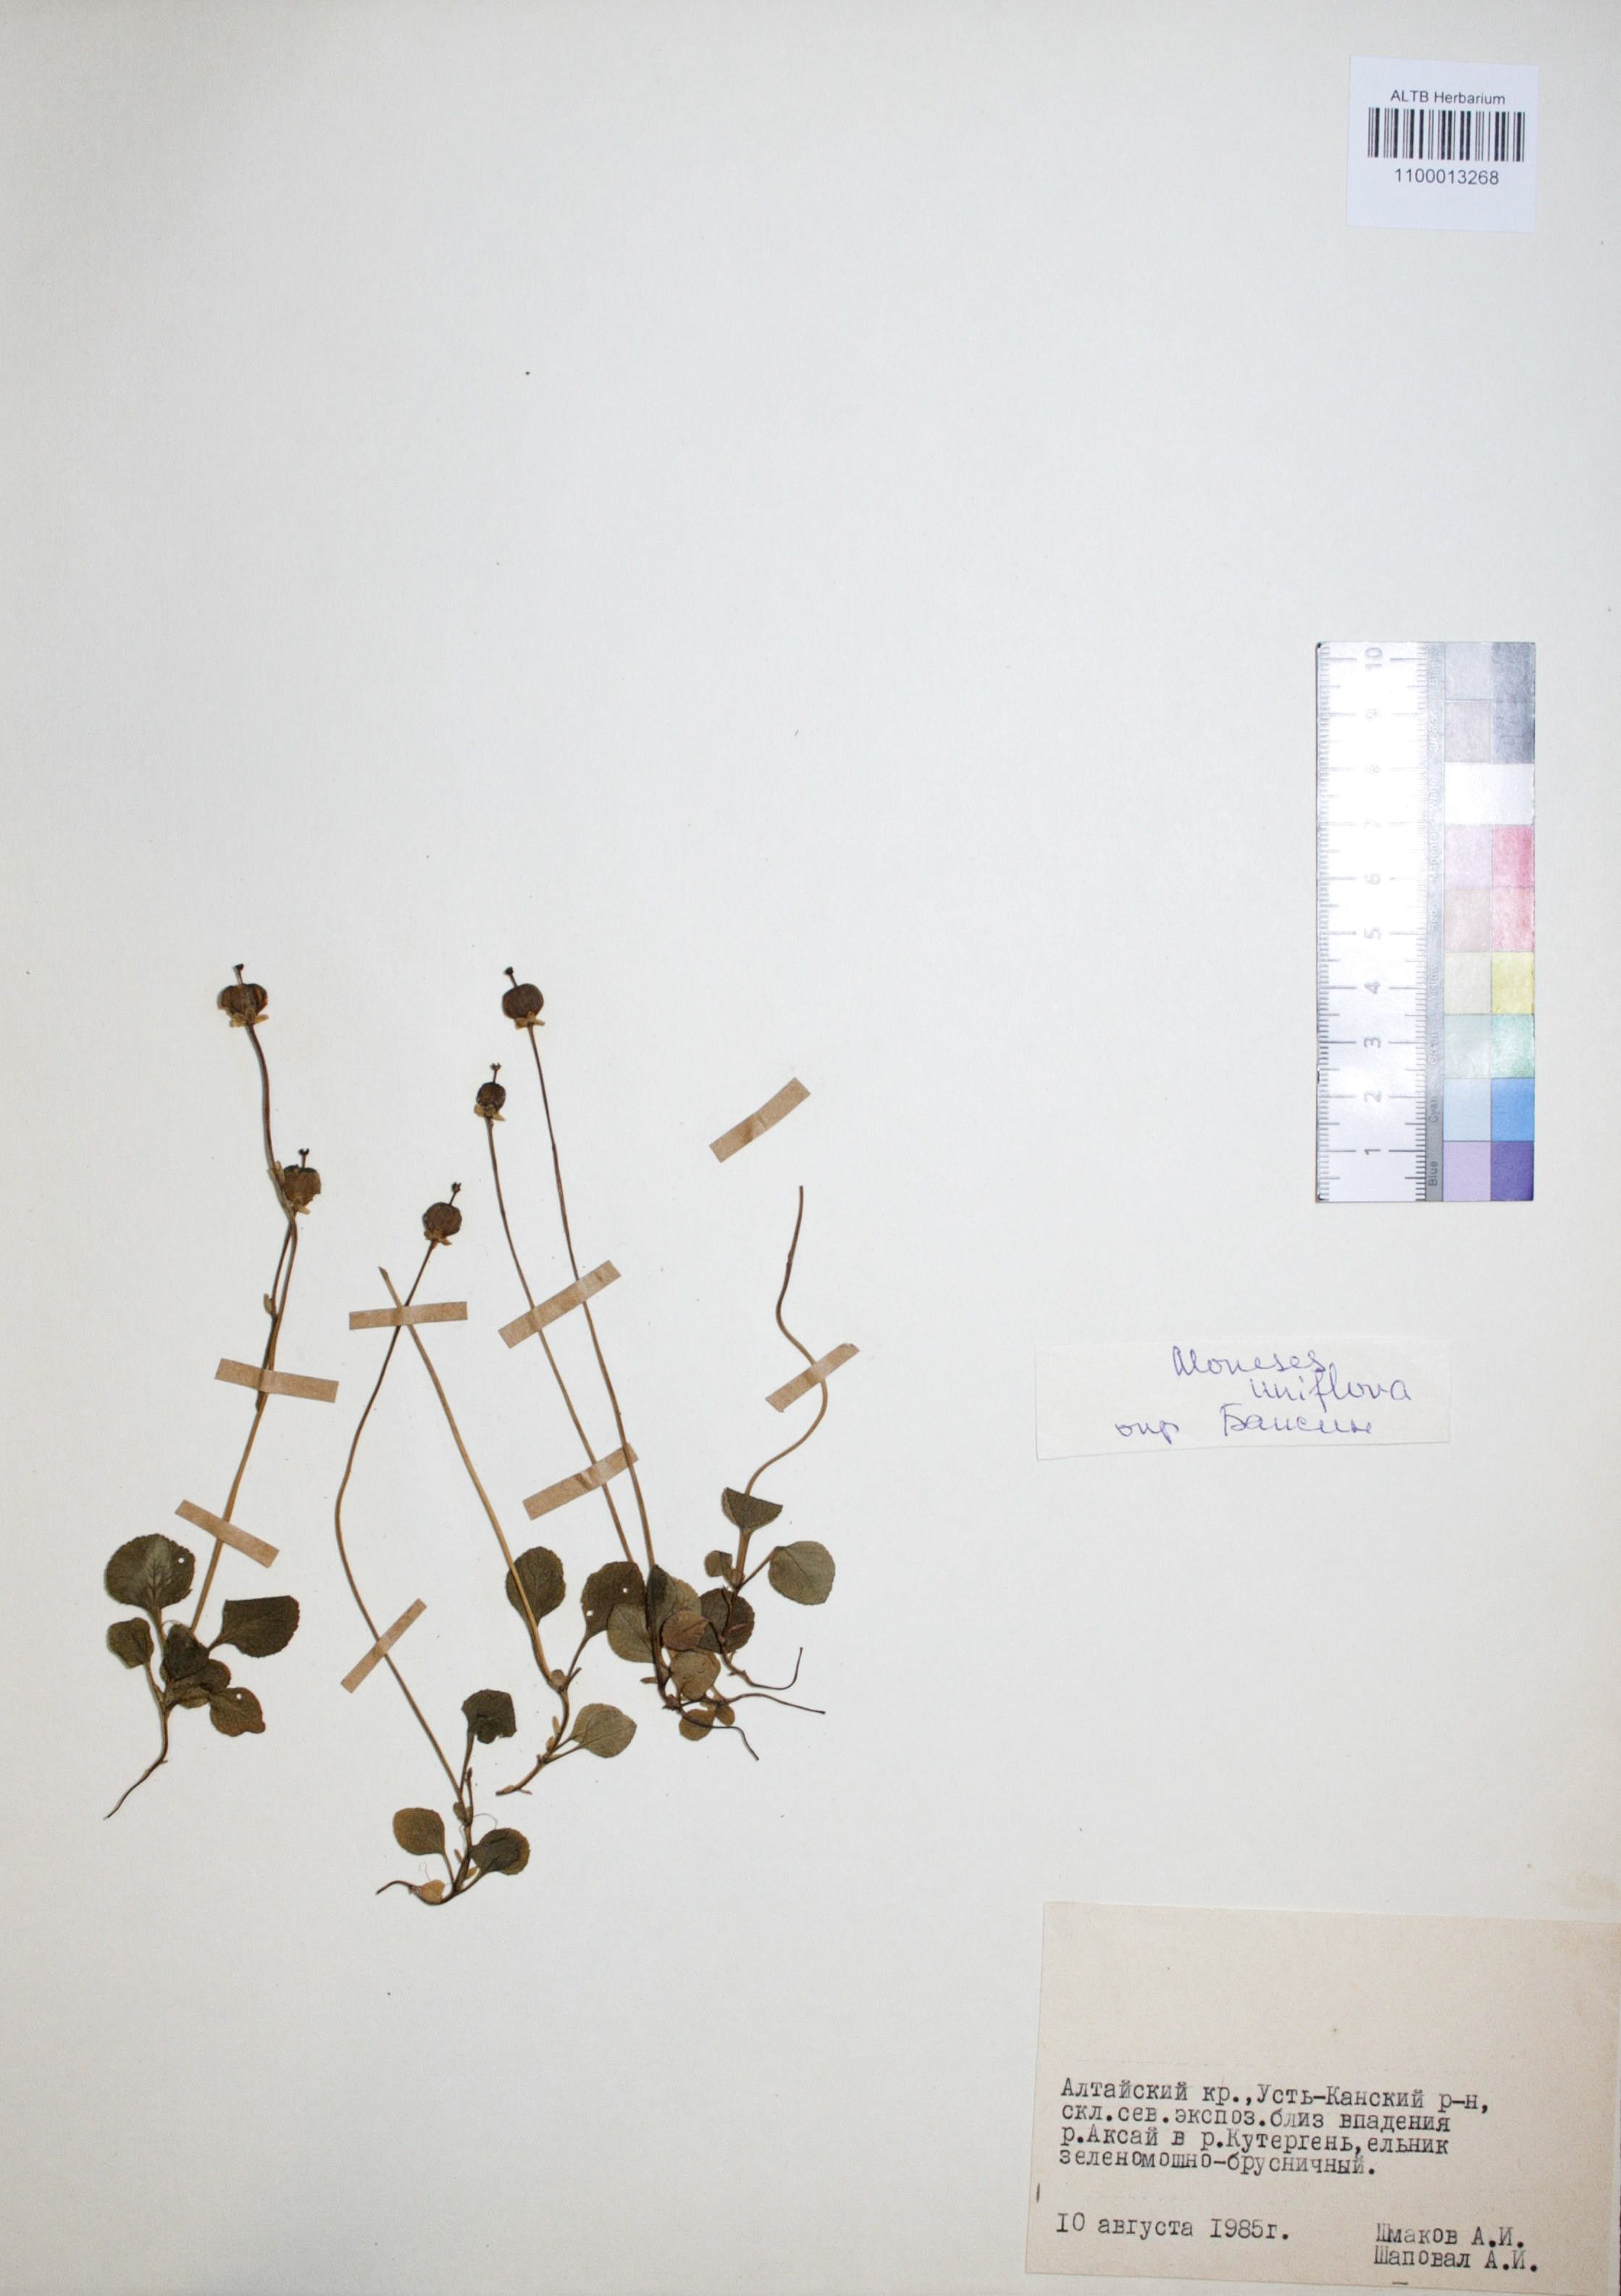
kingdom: Plantae
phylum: Tracheophyta
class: Magnoliopsida
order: Ericales
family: Ericaceae
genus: Moneses
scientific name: Moneses uniflora
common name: One-flowered wintergreen
